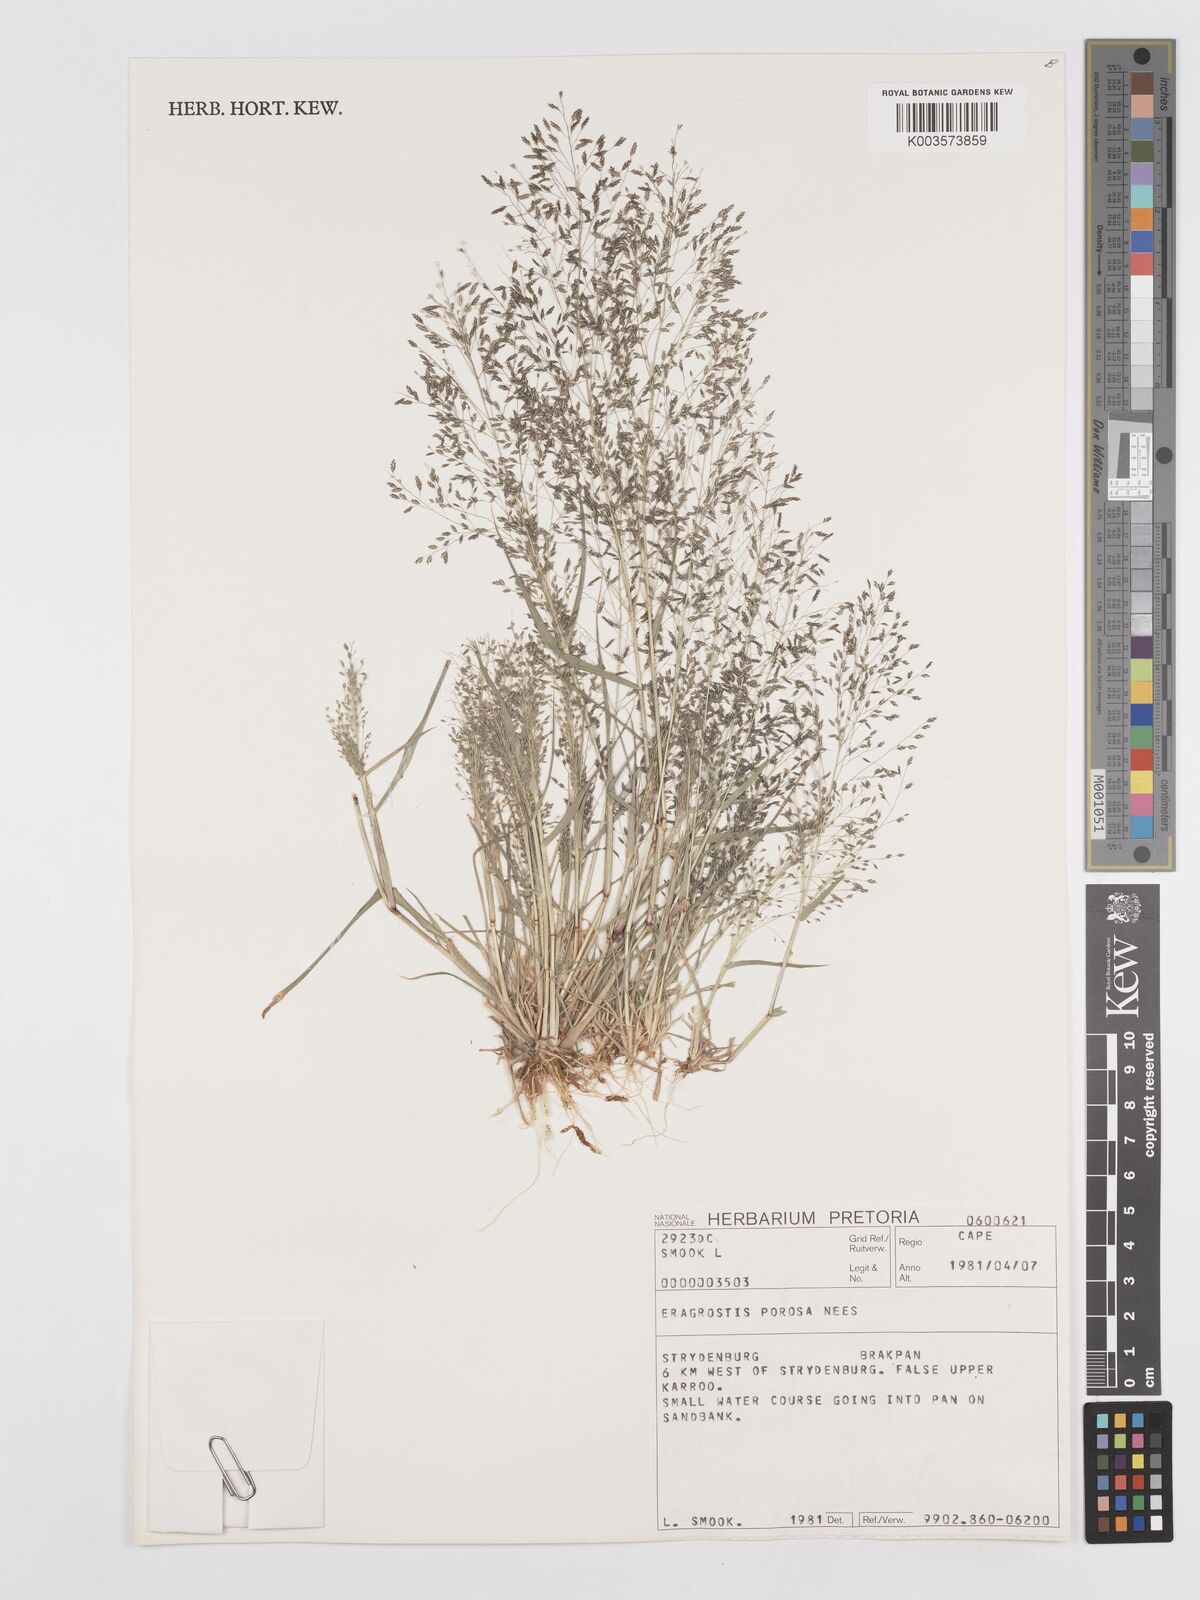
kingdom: Plantae
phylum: Tracheophyta
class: Liliopsida
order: Poales
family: Poaceae
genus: Eragrostis
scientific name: Eragrostis porosa
